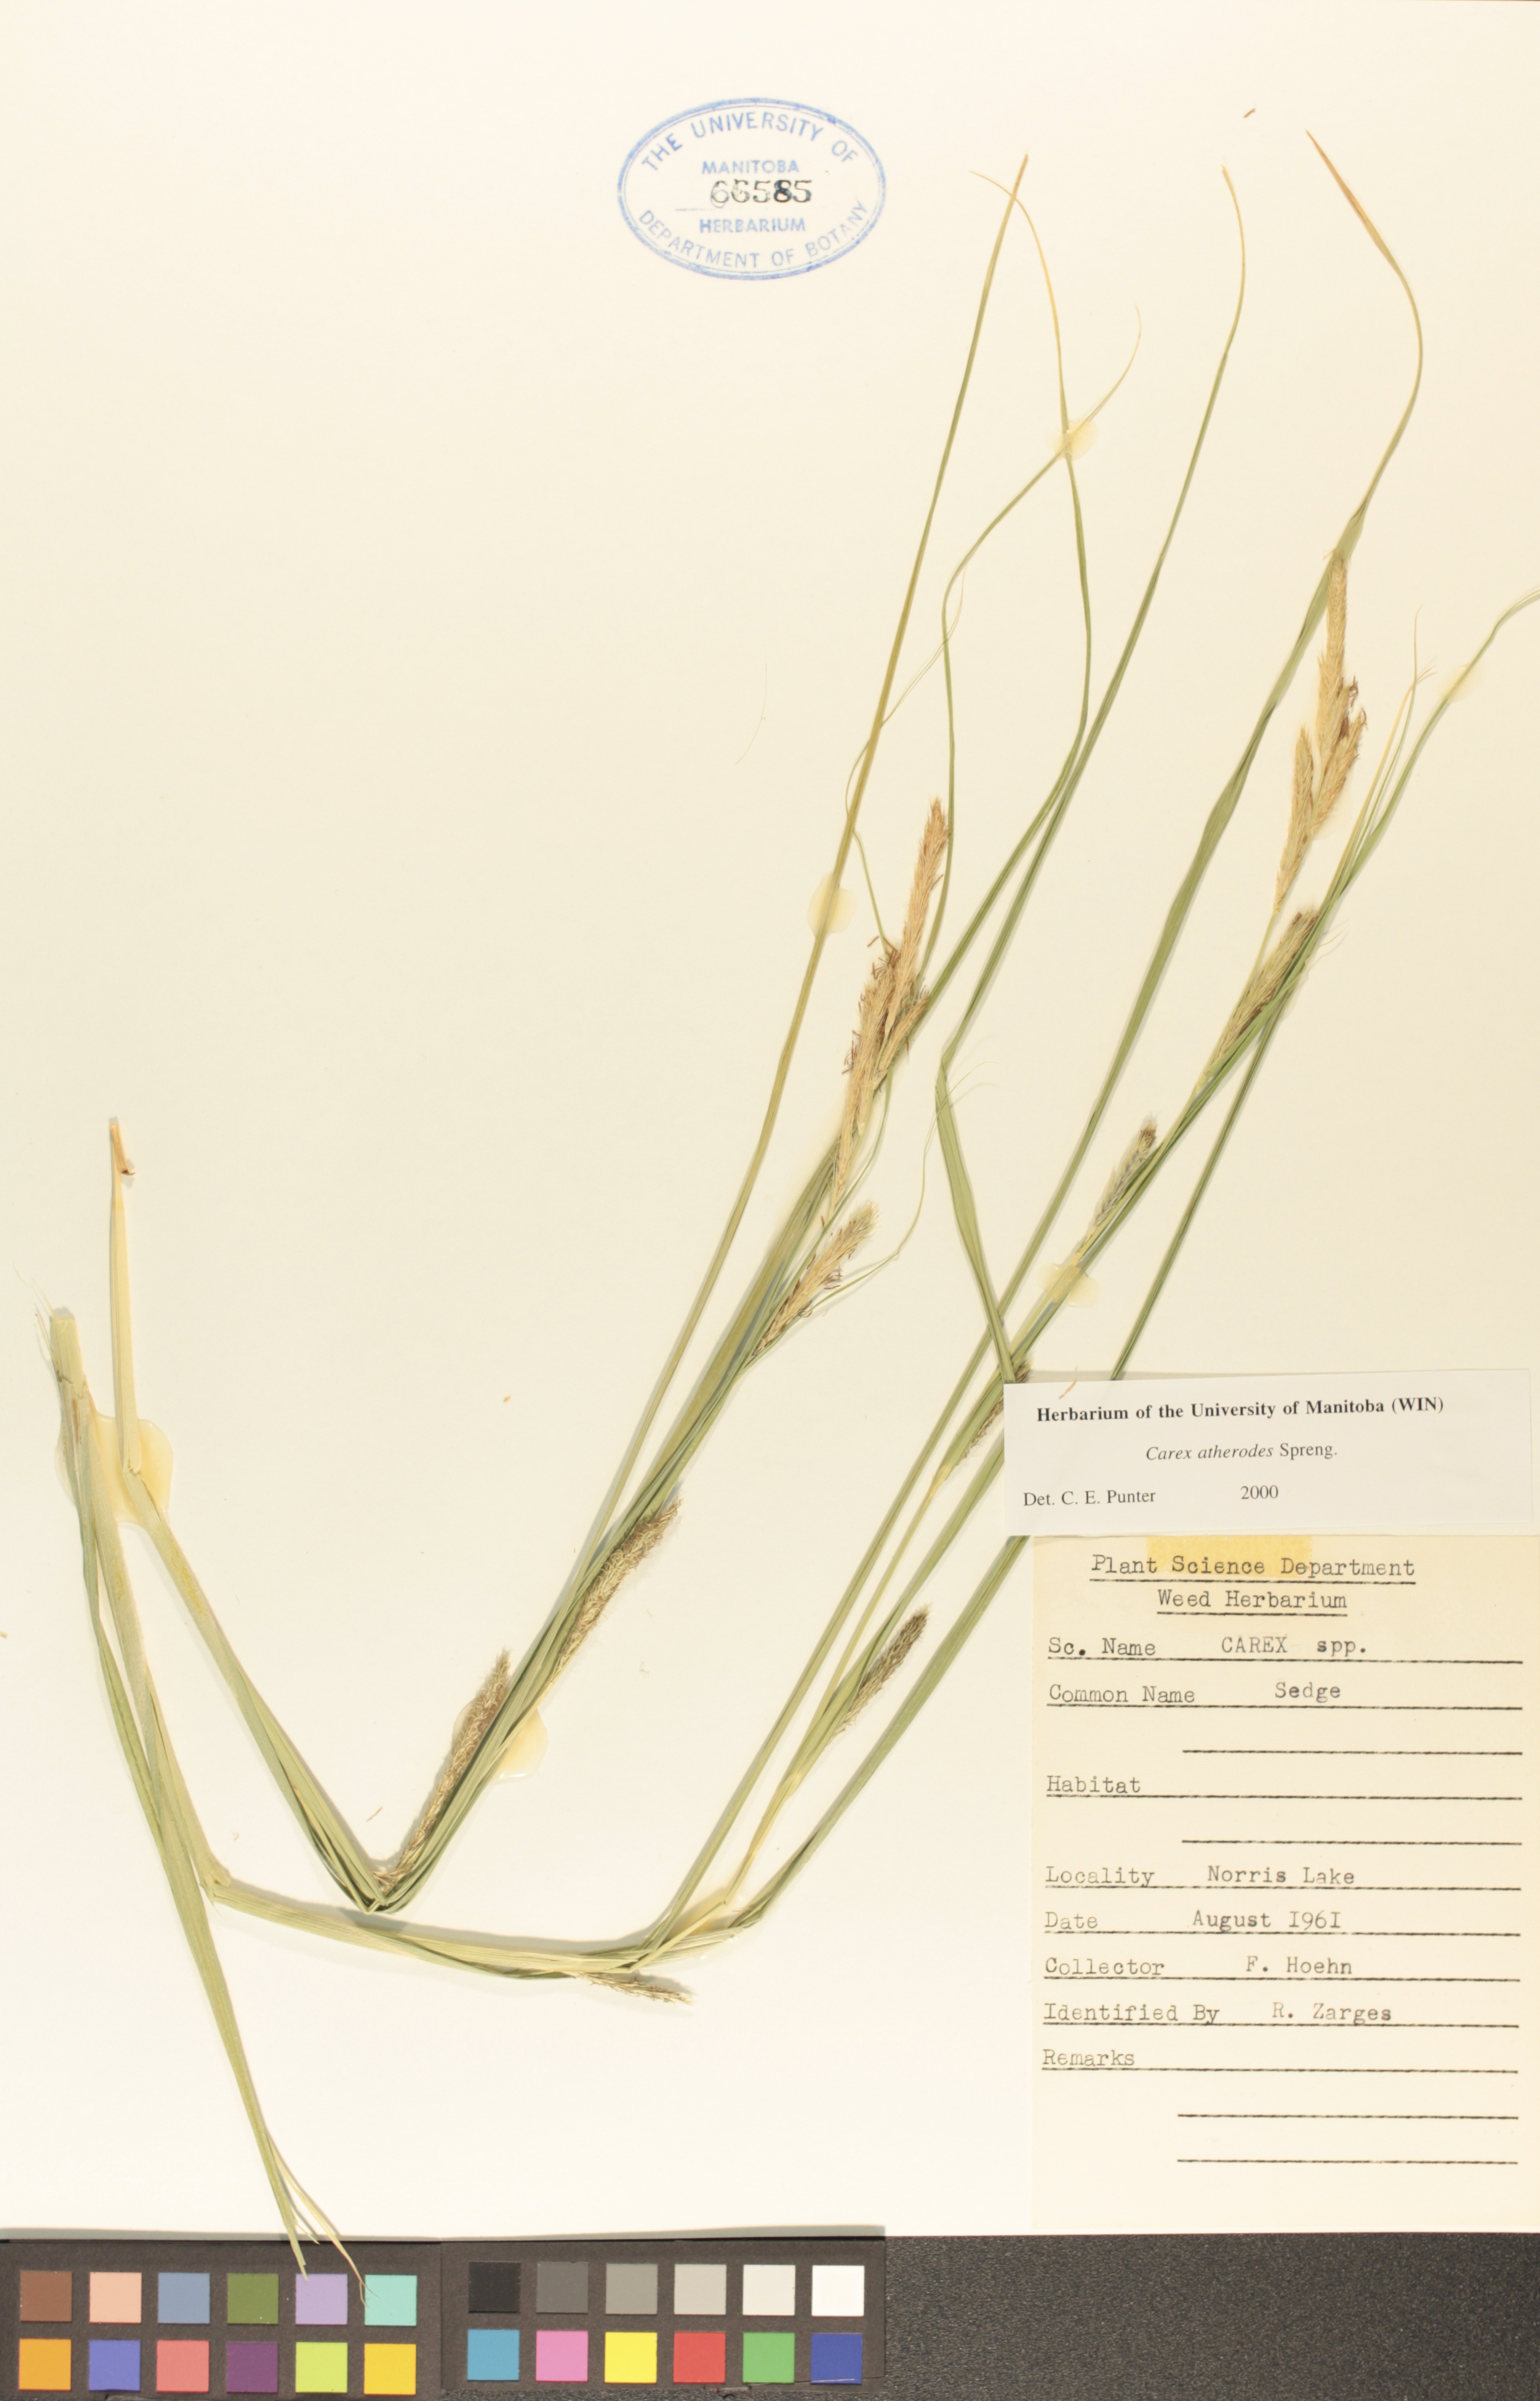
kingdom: Plantae
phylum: Tracheophyta
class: Liliopsida
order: Poales
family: Cyperaceae
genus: Carex
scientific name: Carex atherodes
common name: Wheat sedge
